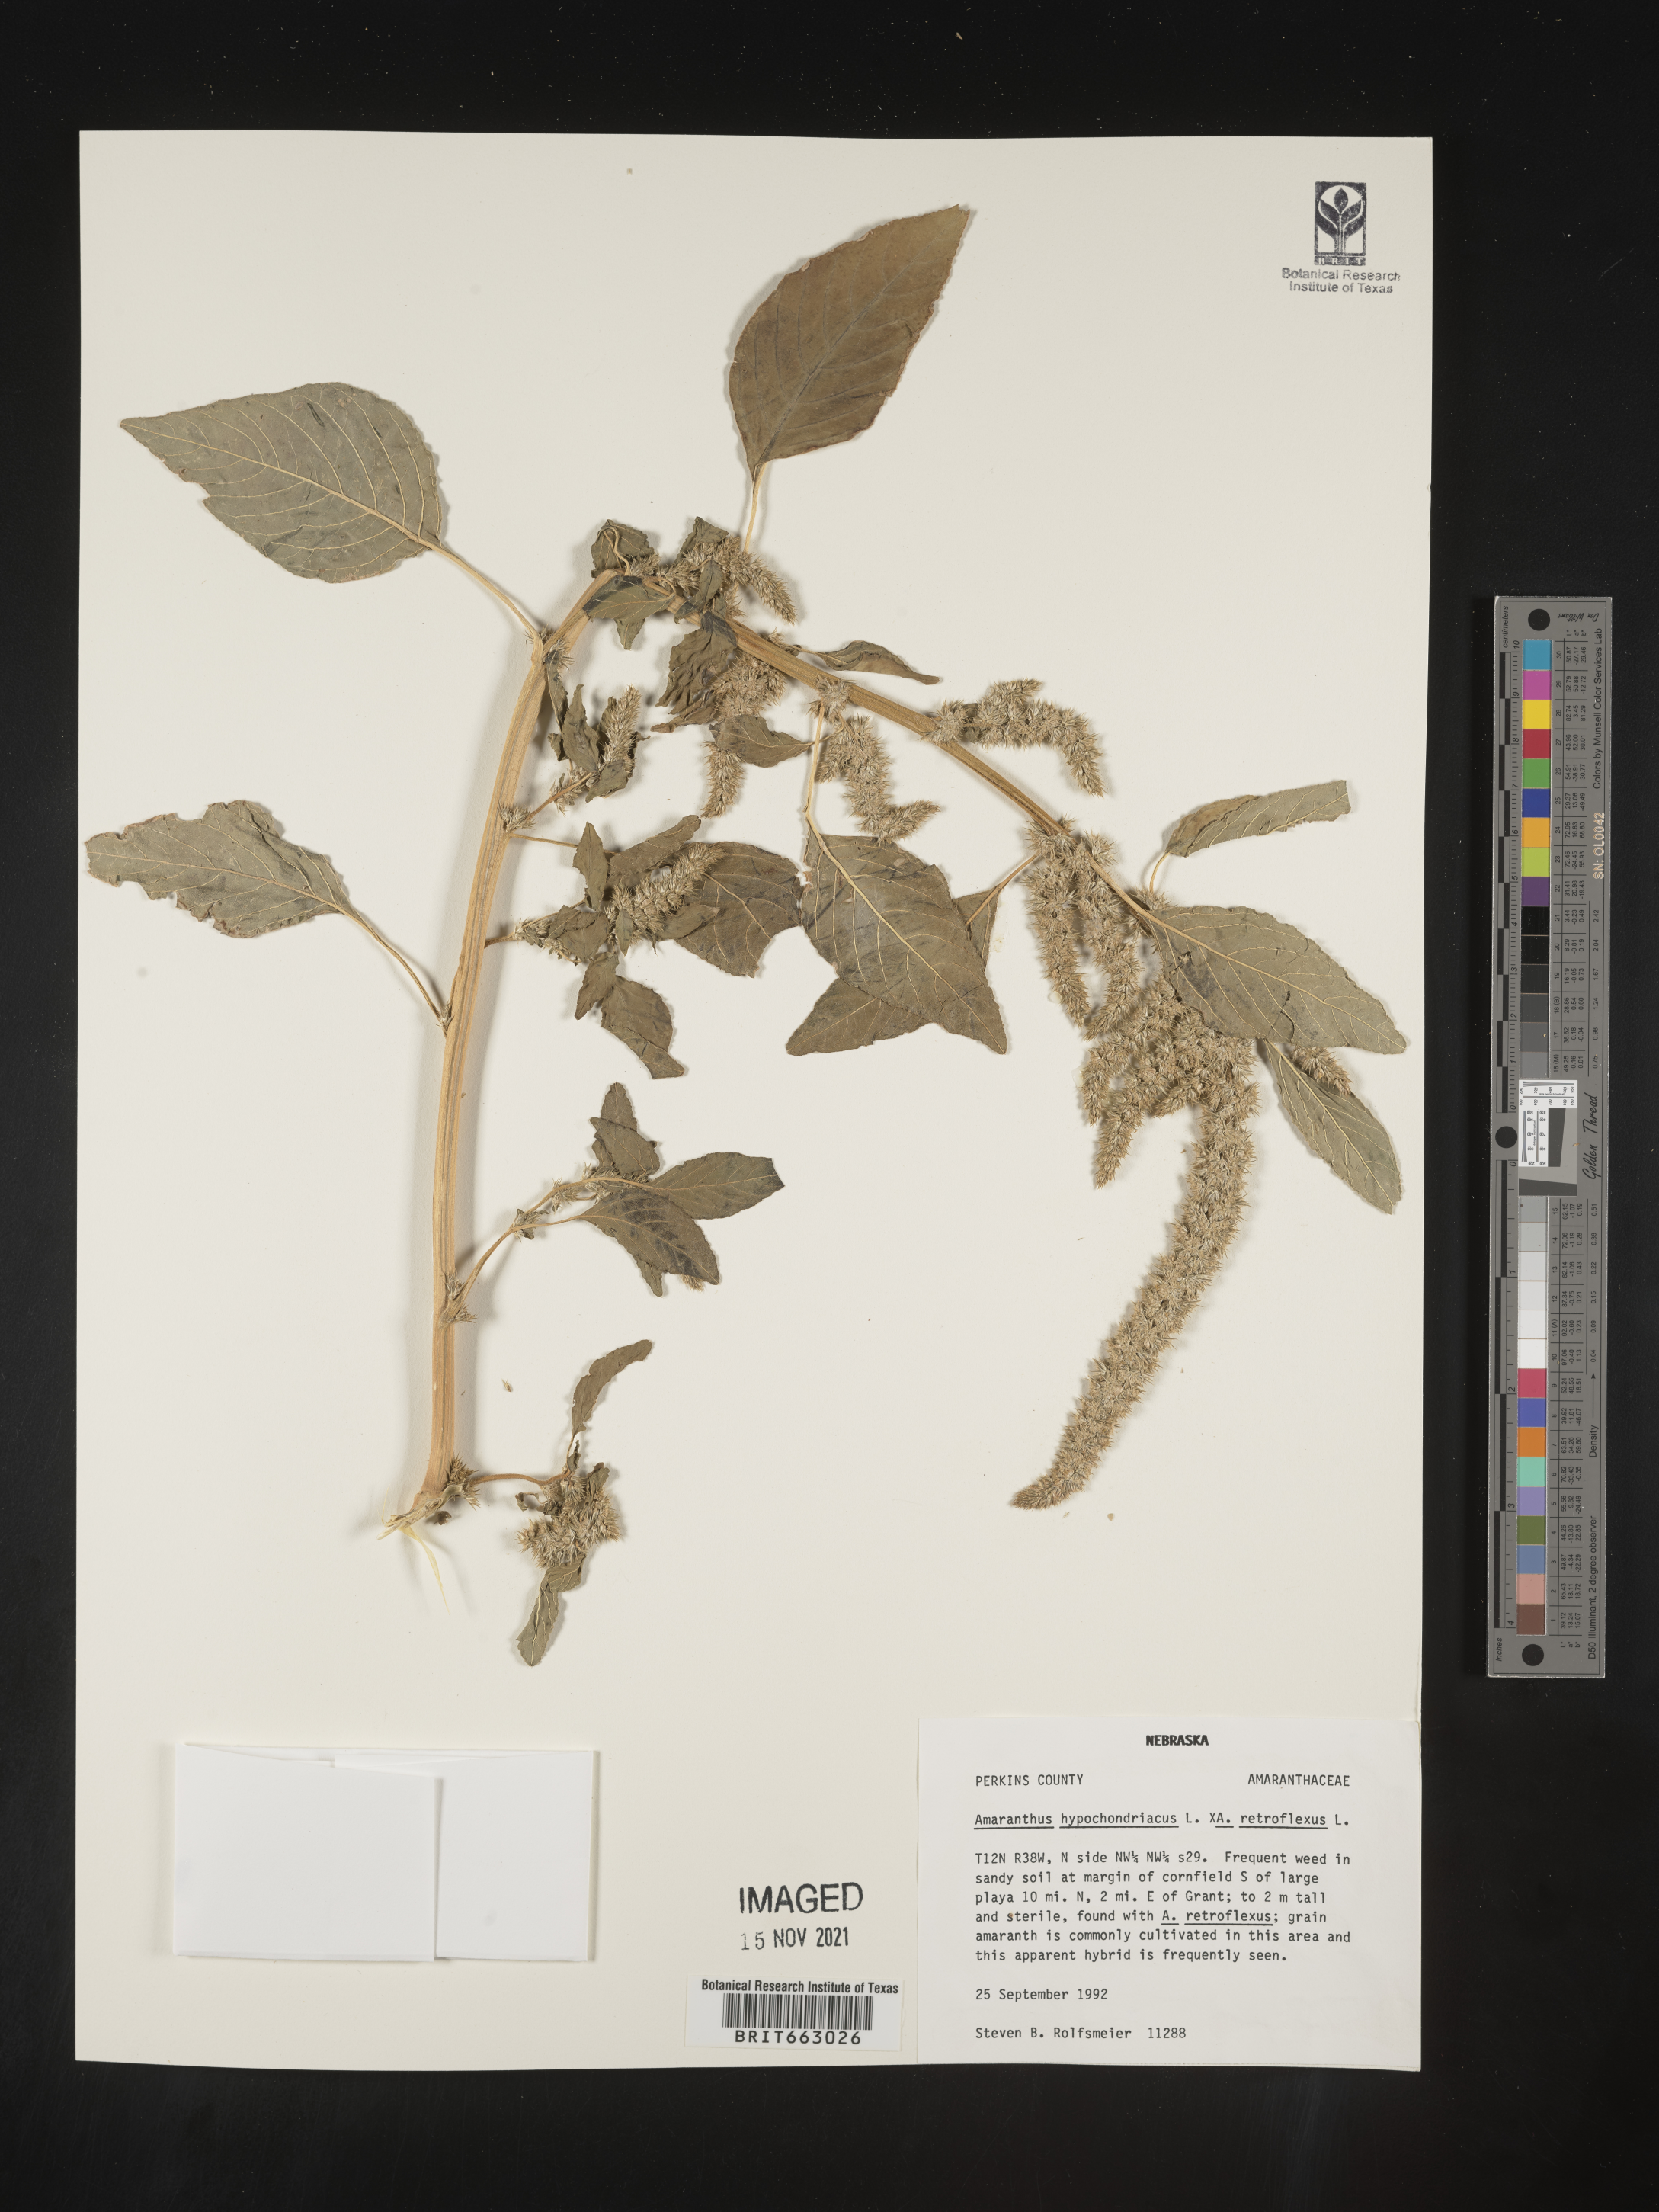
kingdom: Plantae
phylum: Tracheophyta
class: Magnoliopsida
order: Caryophyllales
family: Amaranthaceae
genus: Amaranthus
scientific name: Amaranthus retroflexus
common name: Redroot amaranth
